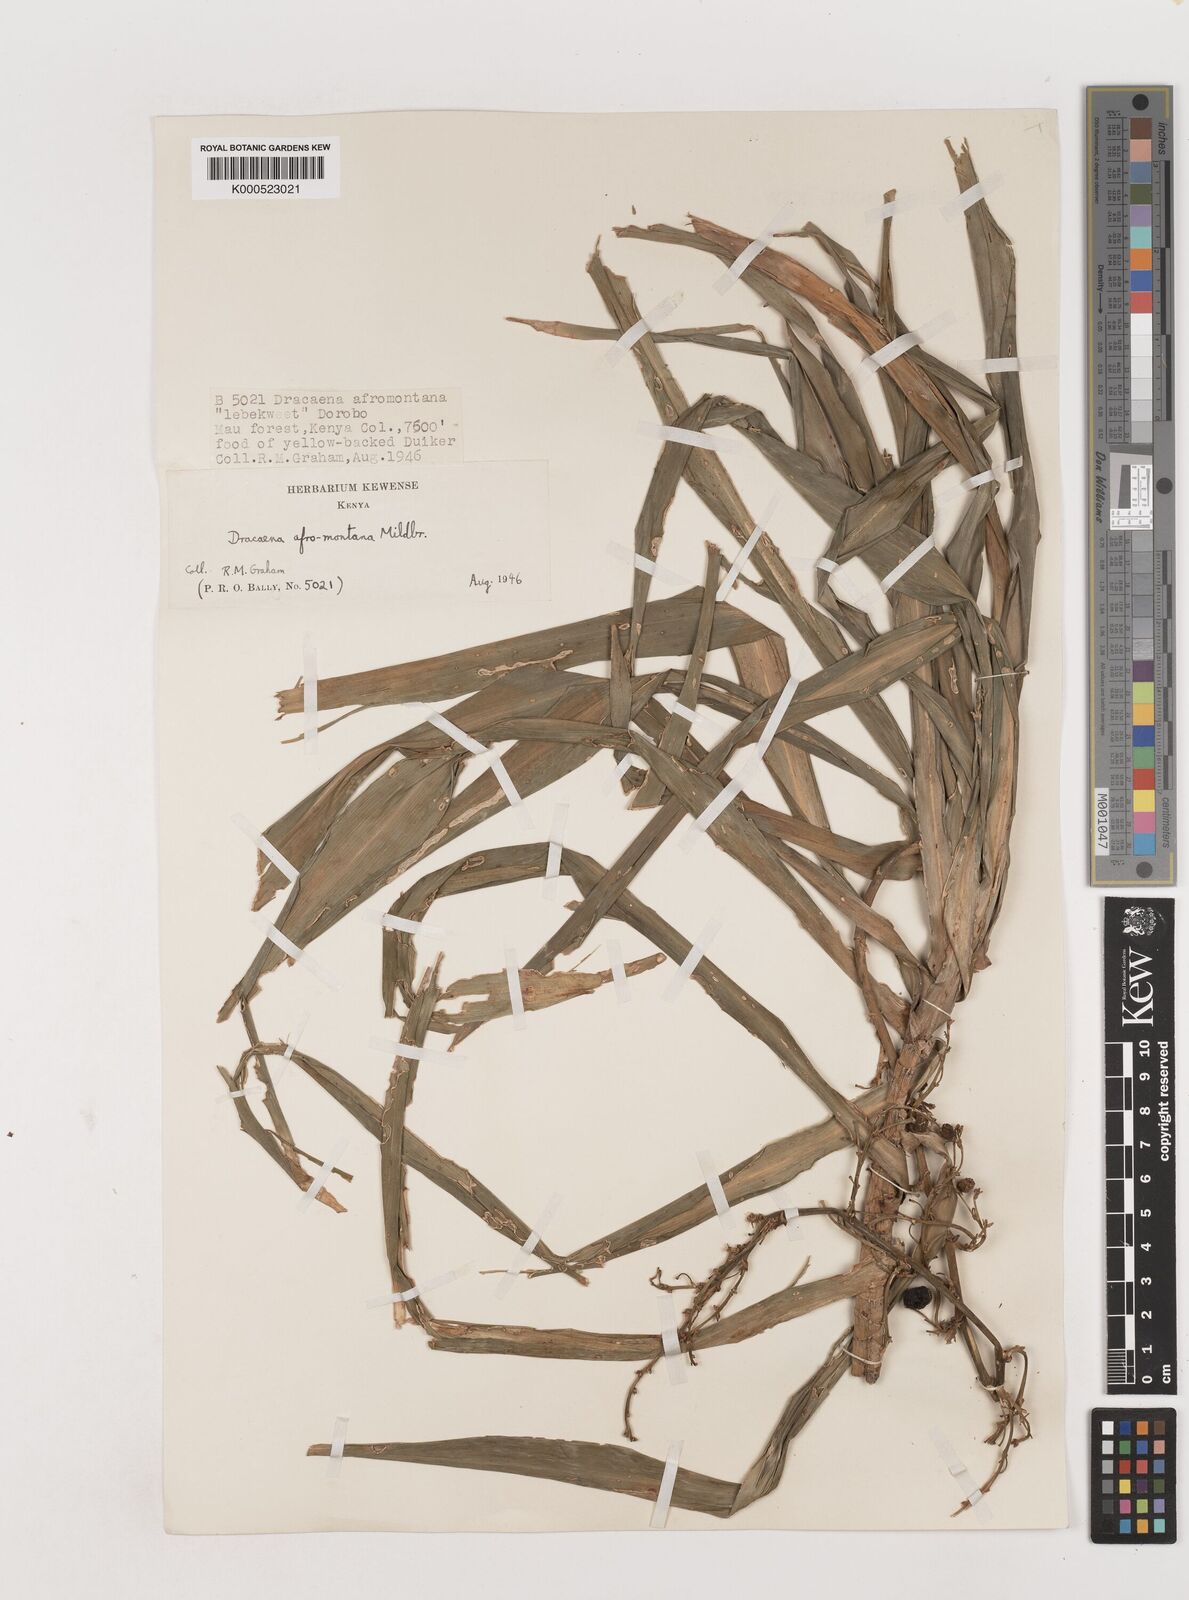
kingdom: Plantae
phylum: Tracheophyta
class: Liliopsida
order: Asparagales
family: Asparagaceae
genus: Dracaena
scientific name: Dracaena afromontana
